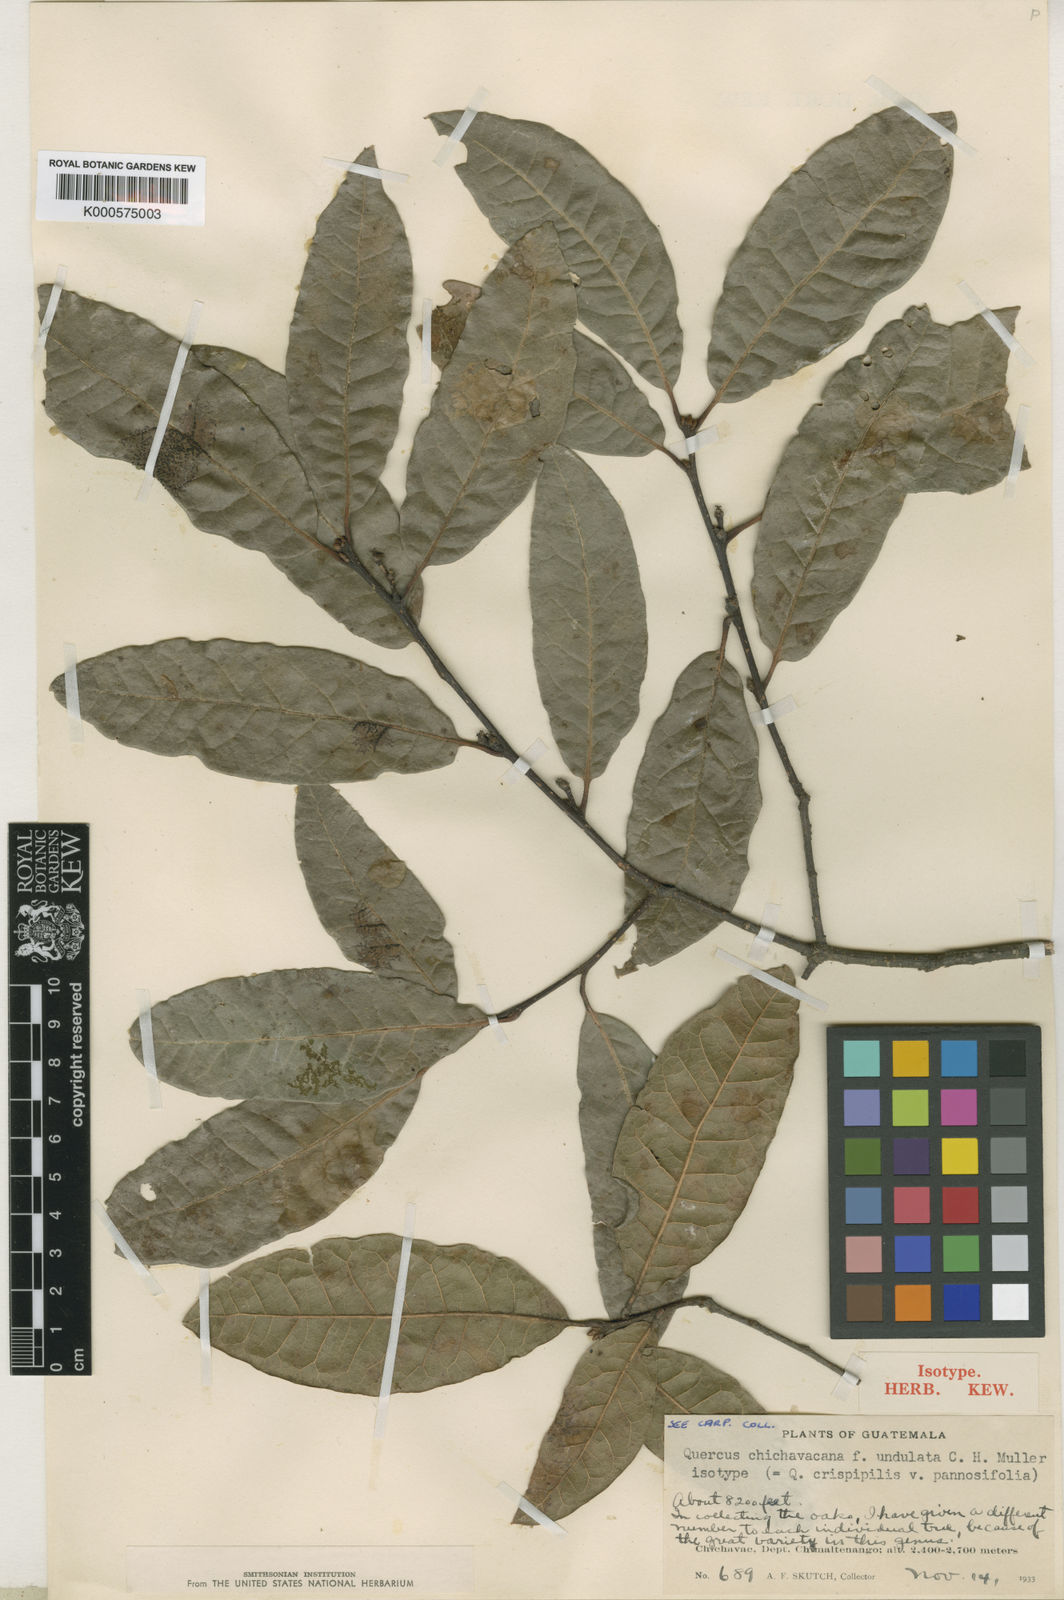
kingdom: Plantae
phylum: Tracheophyta
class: Magnoliopsida
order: Fagales
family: Fagaceae
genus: Quercus
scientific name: Quercus crispipilis
